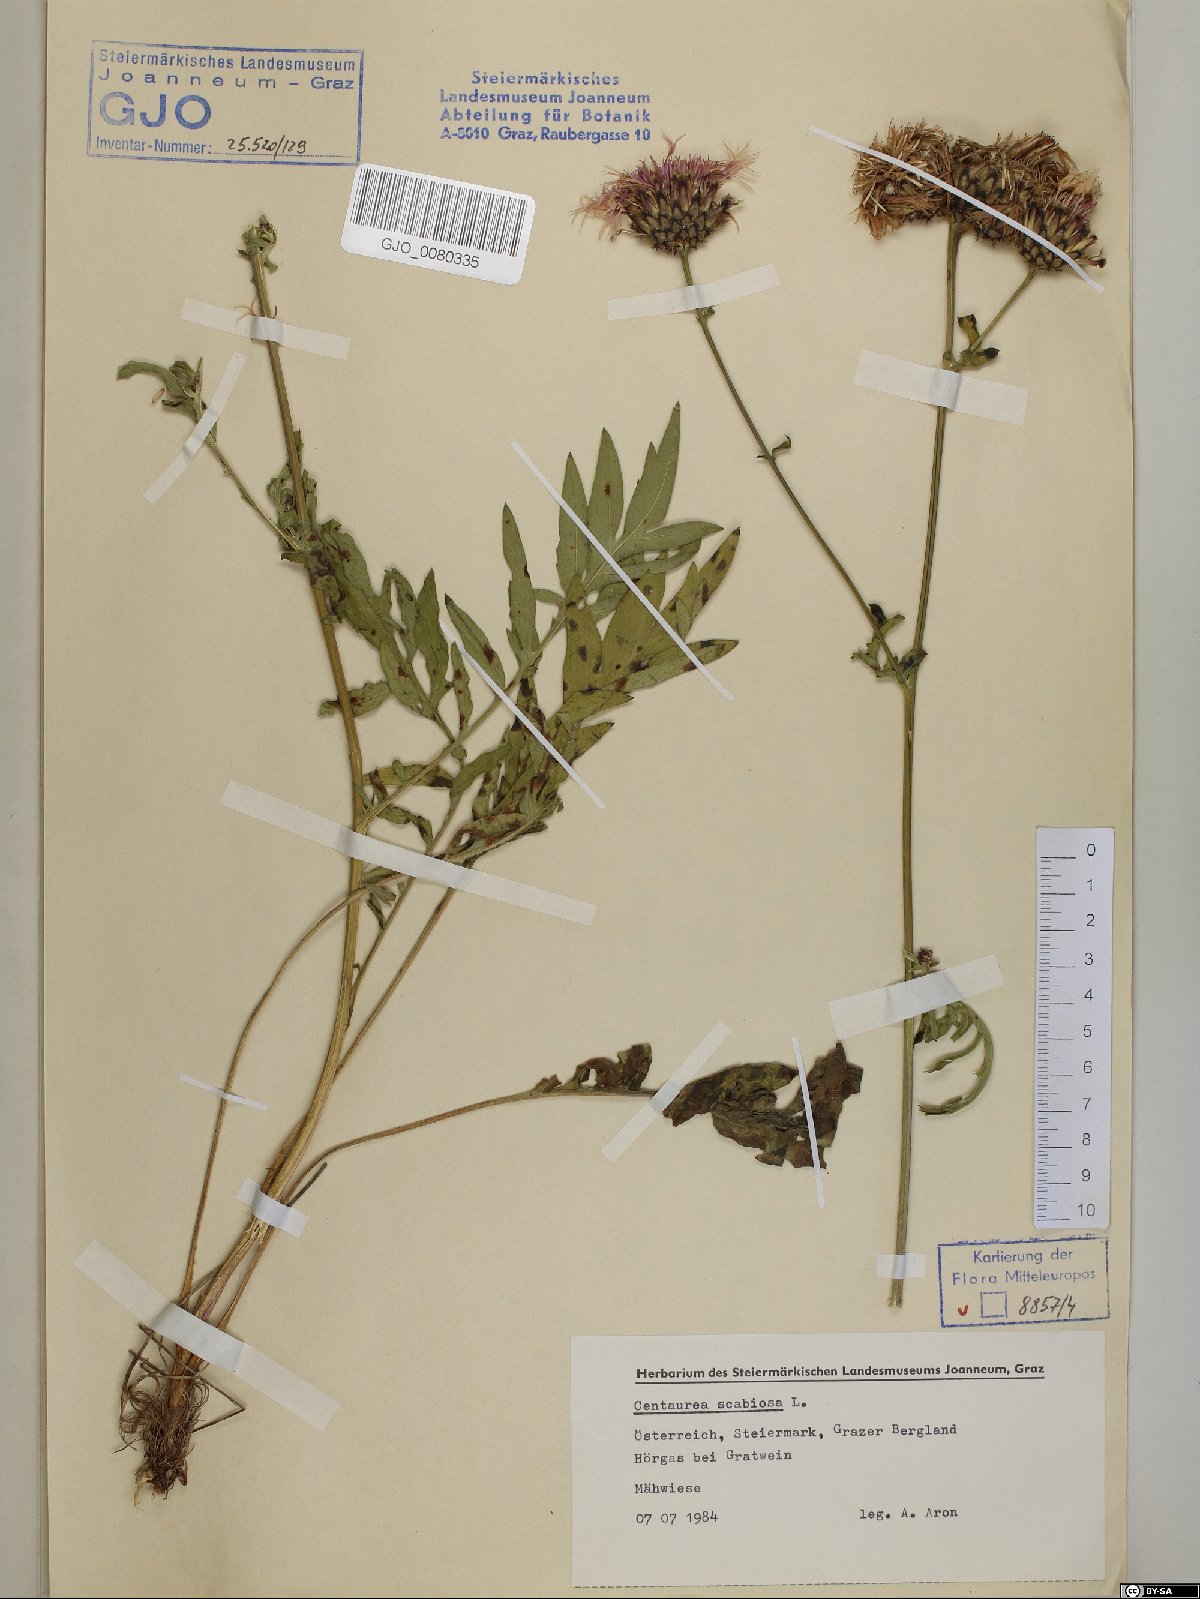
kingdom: Plantae
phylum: Tracheophyta
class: Magnoliopsida
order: Asterales
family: Asteraceae
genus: Centaurea
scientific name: Centaurea scabiosa
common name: Greater knapweed
